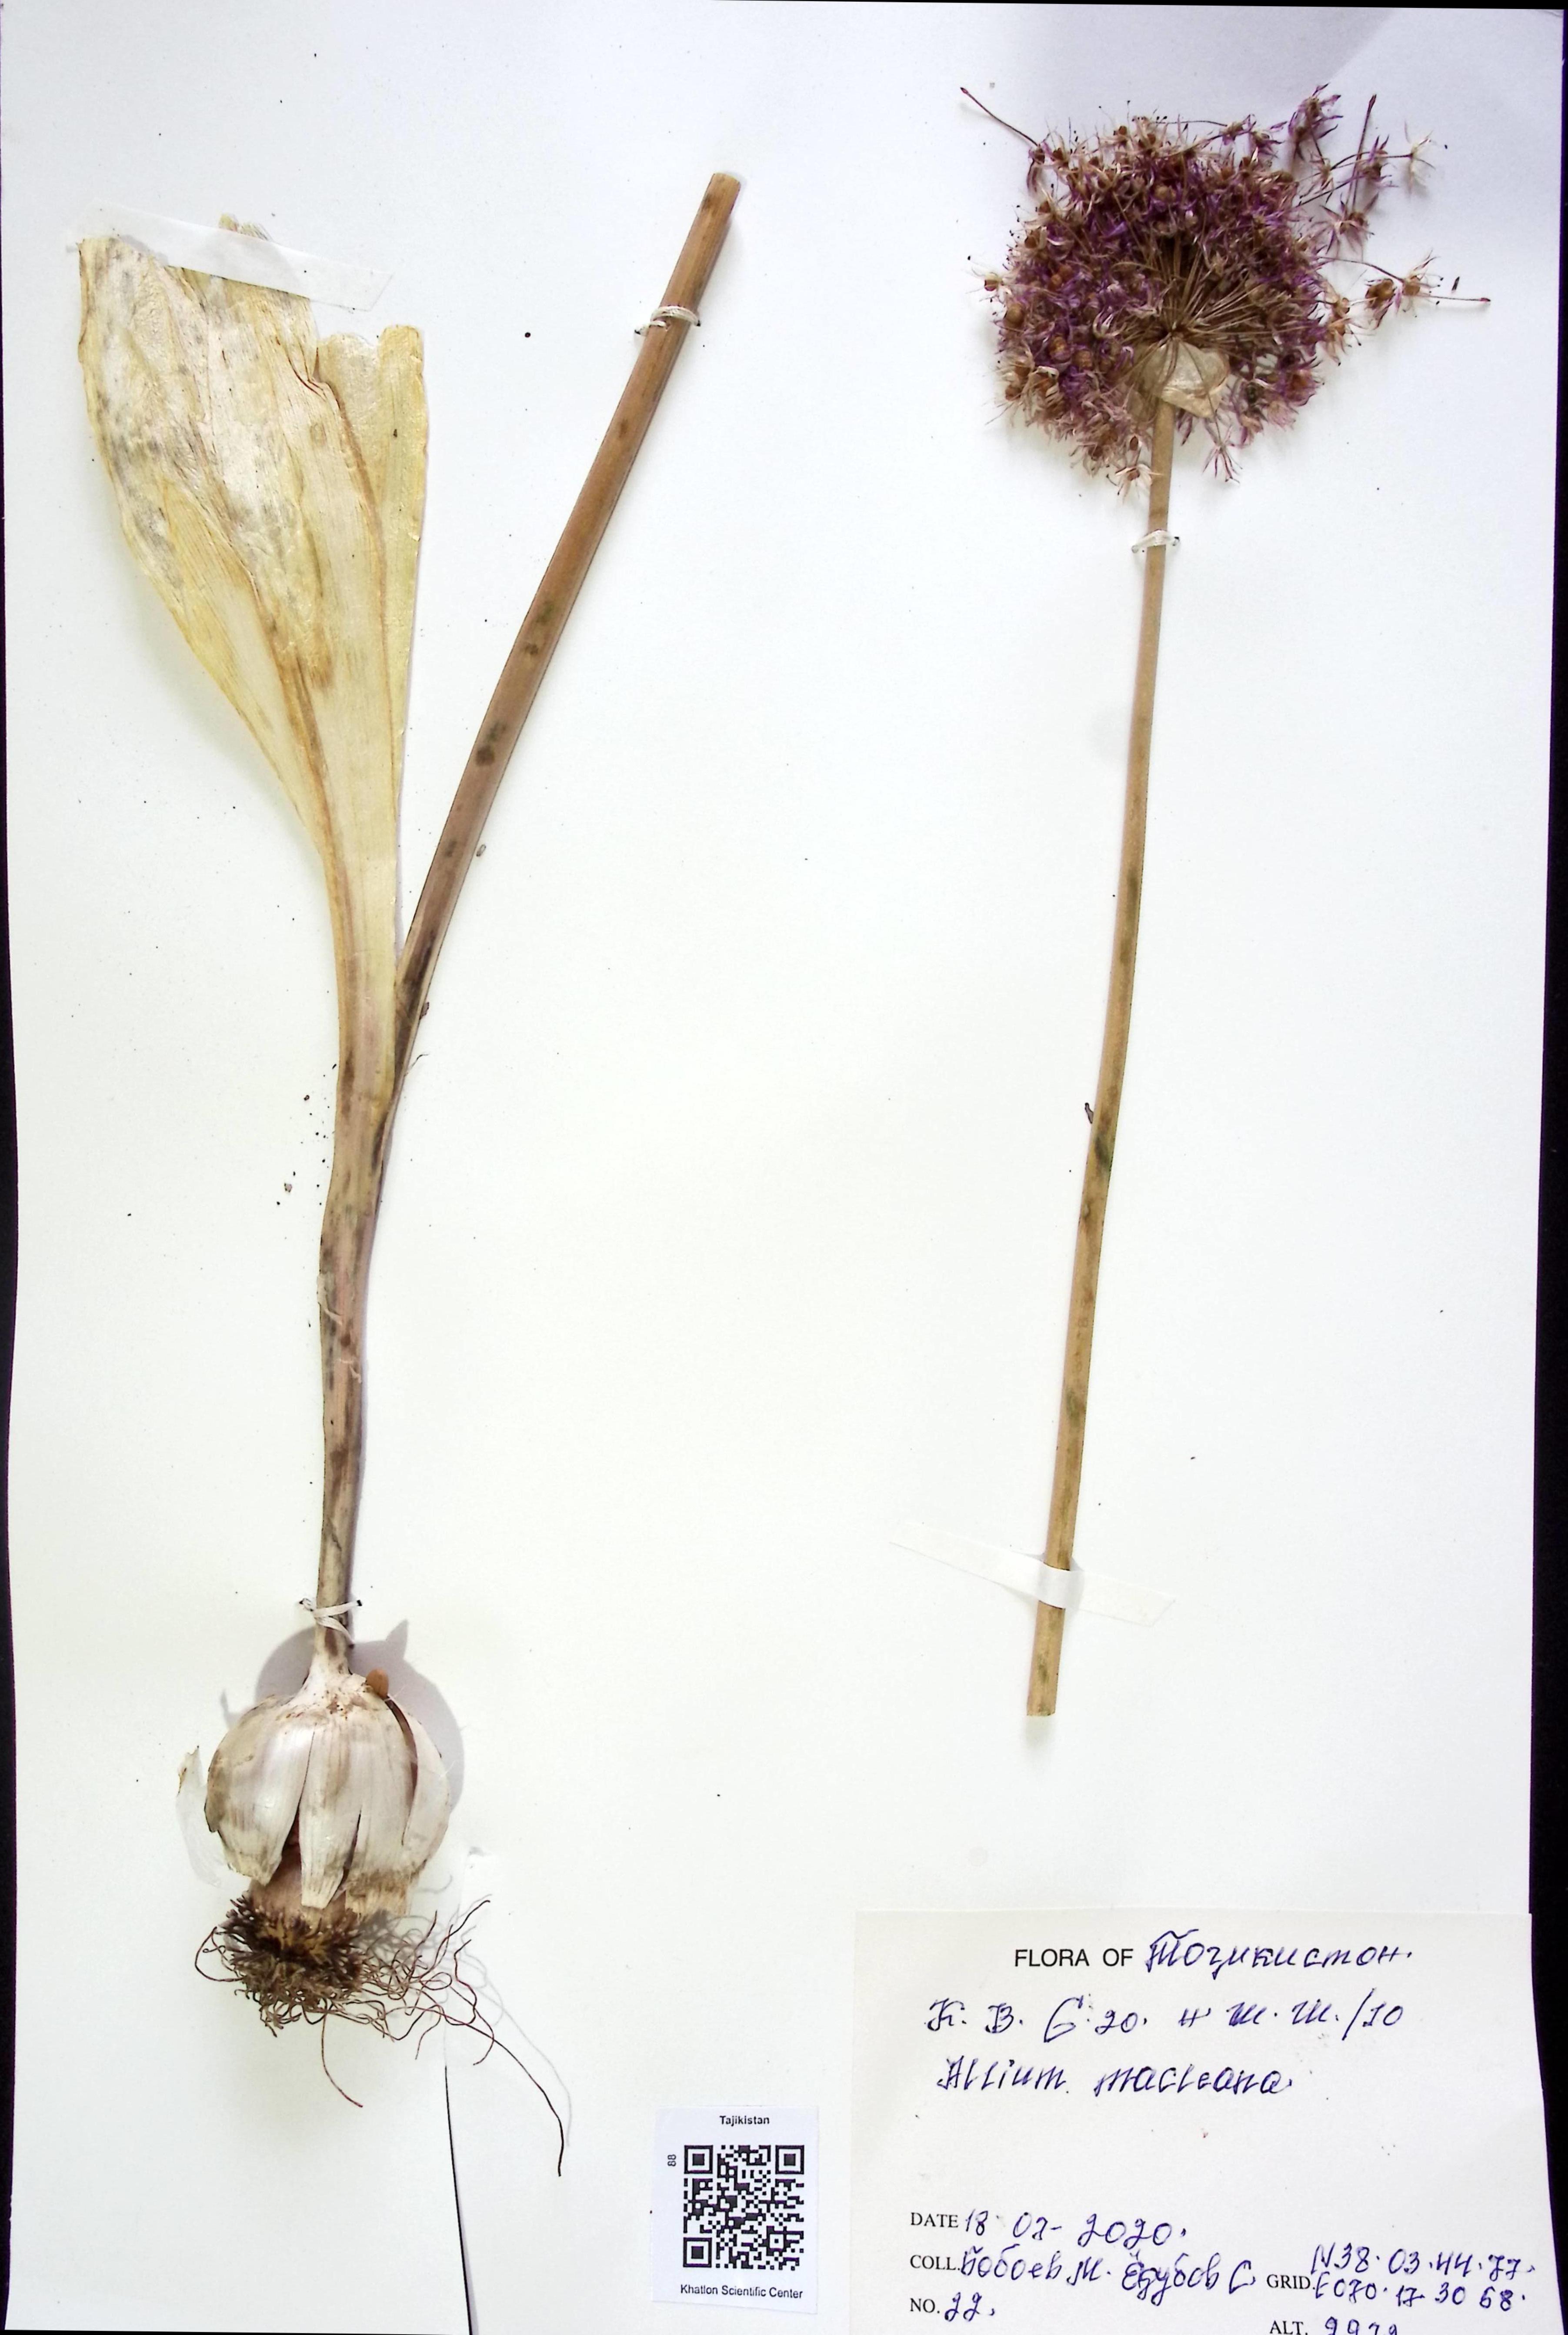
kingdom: Plantae
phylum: Tracheophyta
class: Liliopsida
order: Asparagales
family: Amaryllidaceae
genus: Allium
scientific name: Allium macleanii
